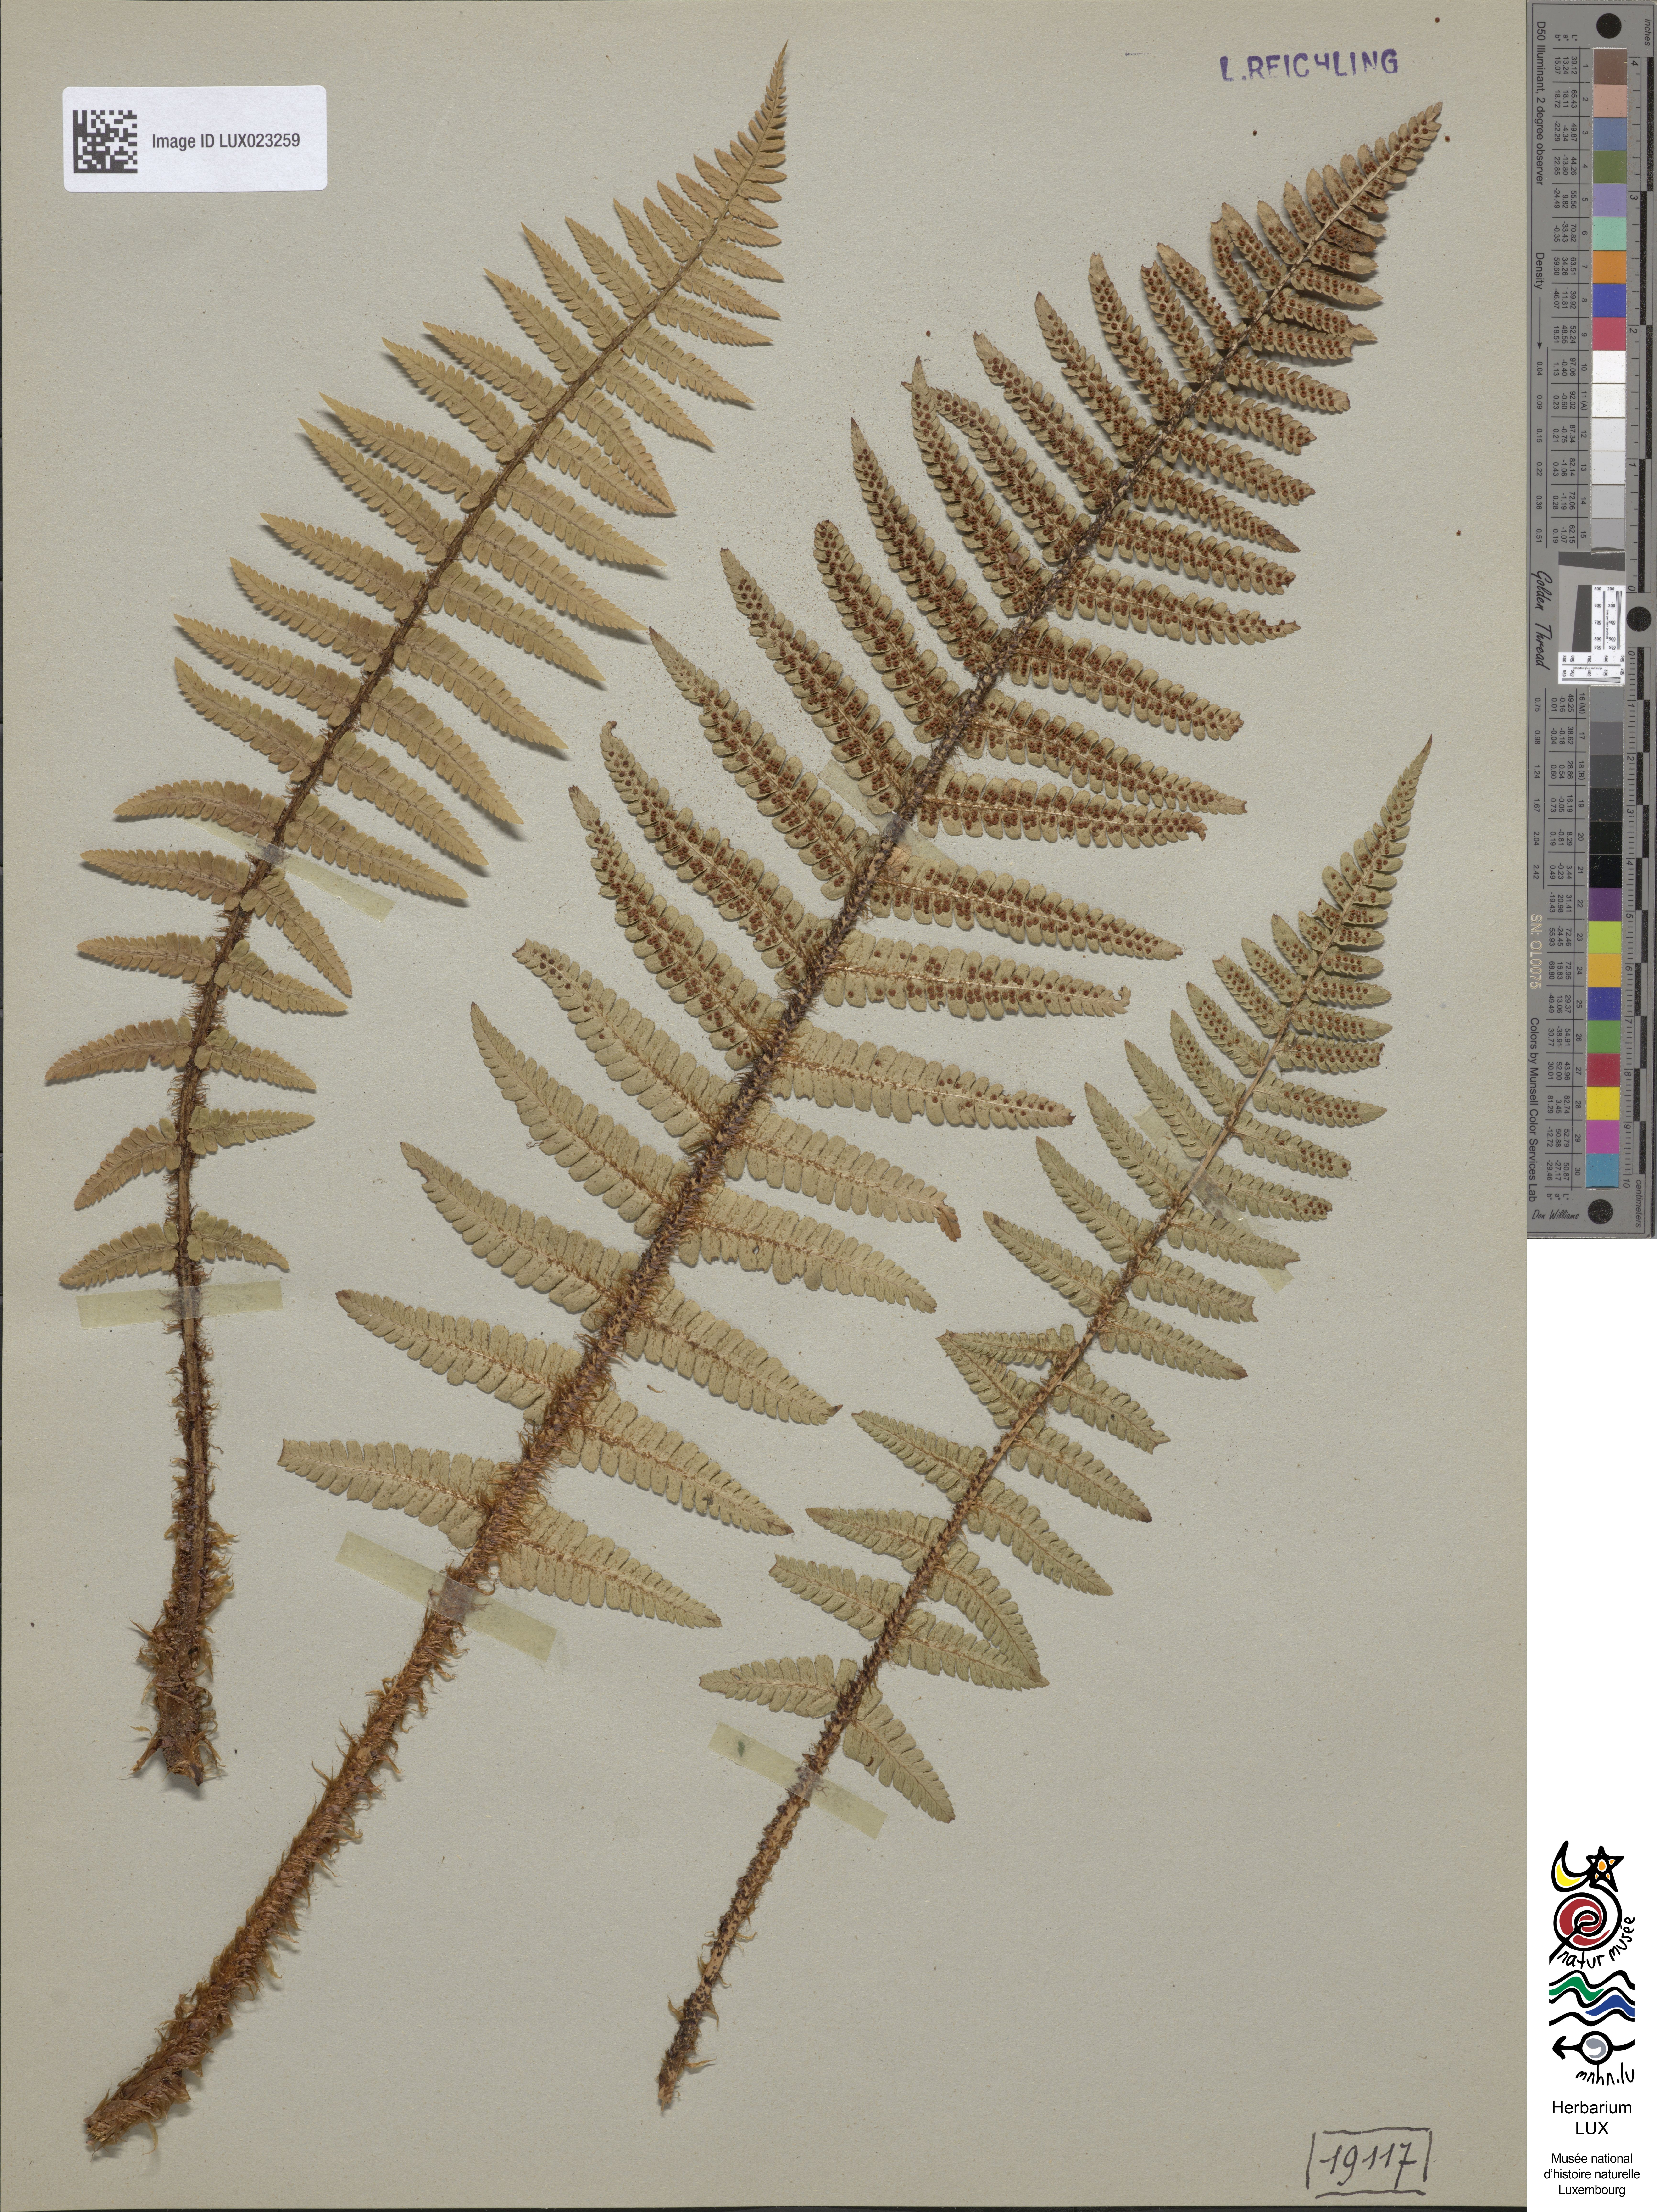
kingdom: Plantae
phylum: Tracheophyta
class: Polypodiopsida
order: Polypodiales
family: Dryopteridaceae
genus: Dryopteris
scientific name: Dryopteris borreri
